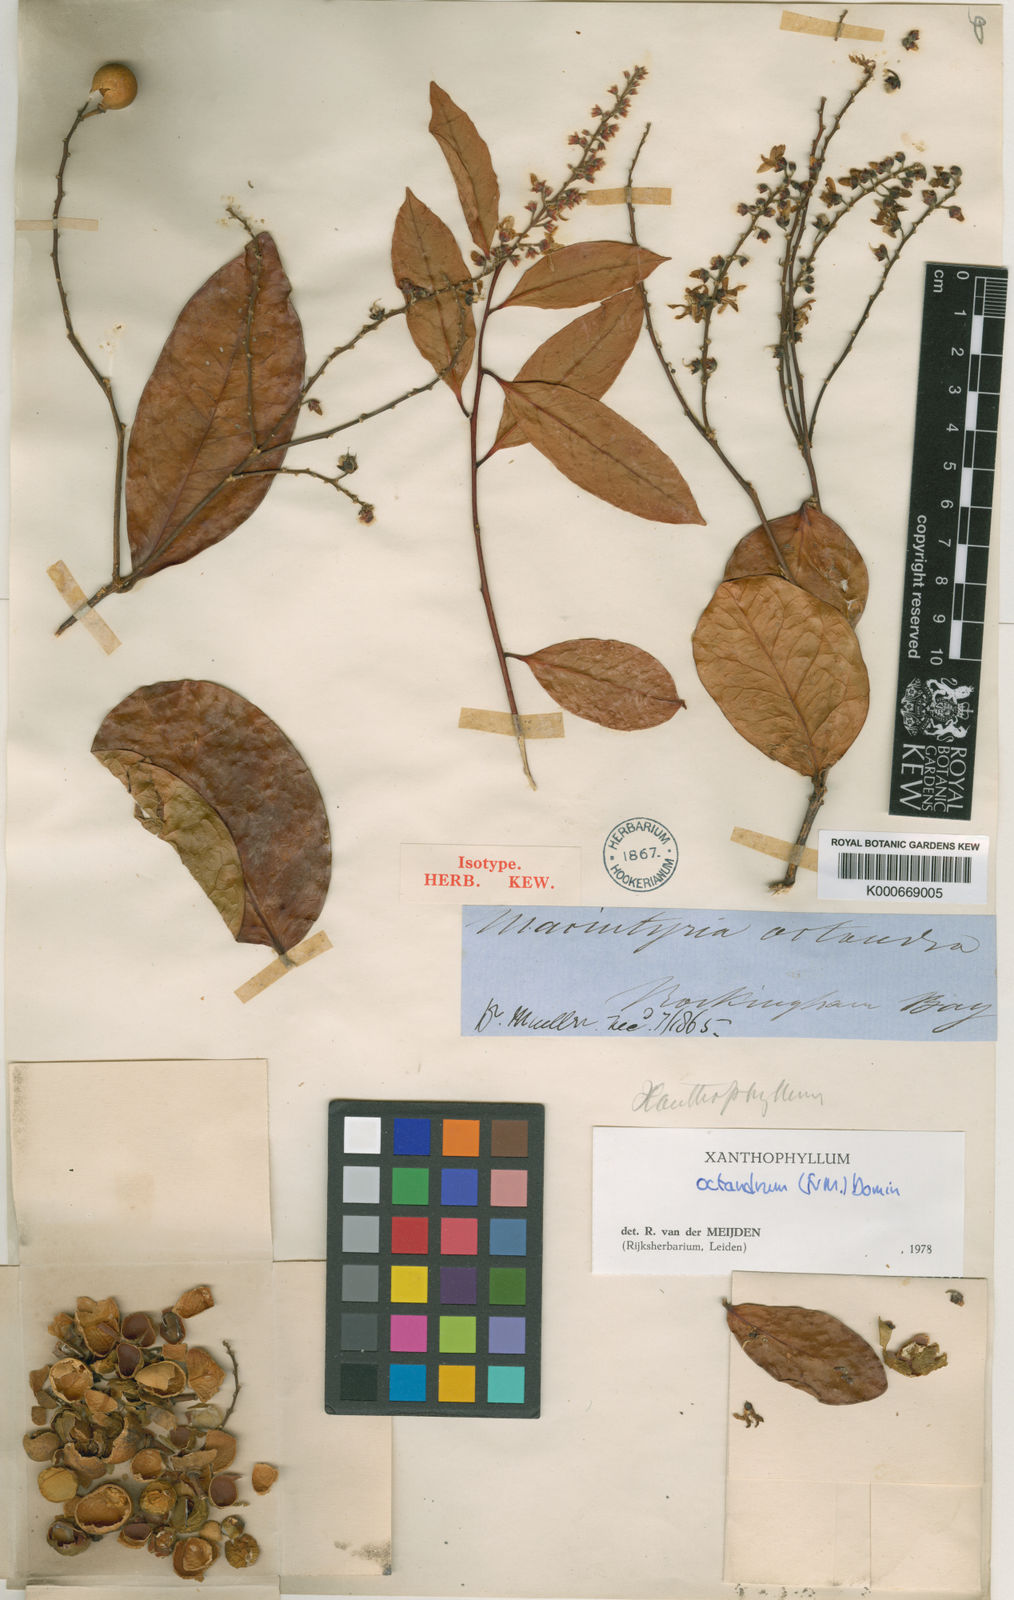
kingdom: Plantae
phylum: Tracheophyta
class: Magnoliopsida
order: Fabales
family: Polygalaceae
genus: Xanthophyllum
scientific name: Xanthophyllum octandrum
